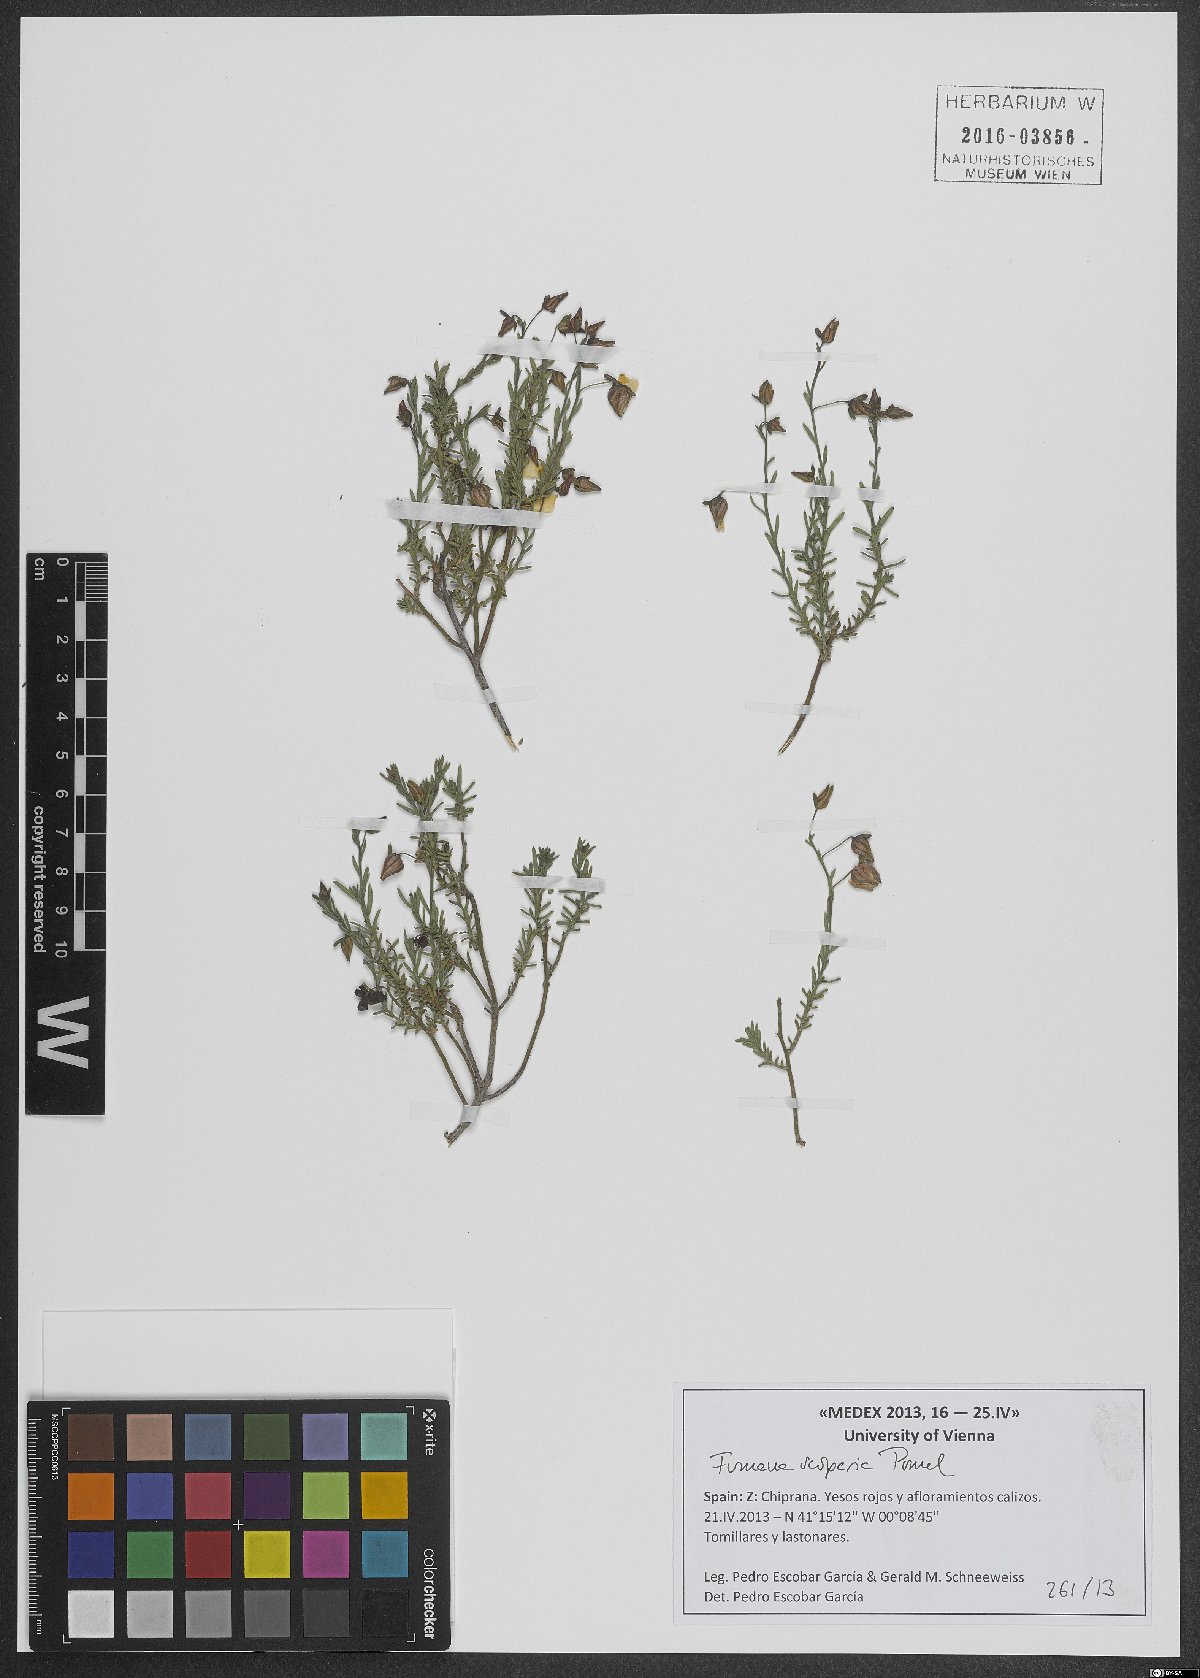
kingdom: Plantae
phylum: Tracheophyta
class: Magnoliopsida
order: Malvales
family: Cistaceae
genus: Fumana
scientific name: Fumana scoparia
